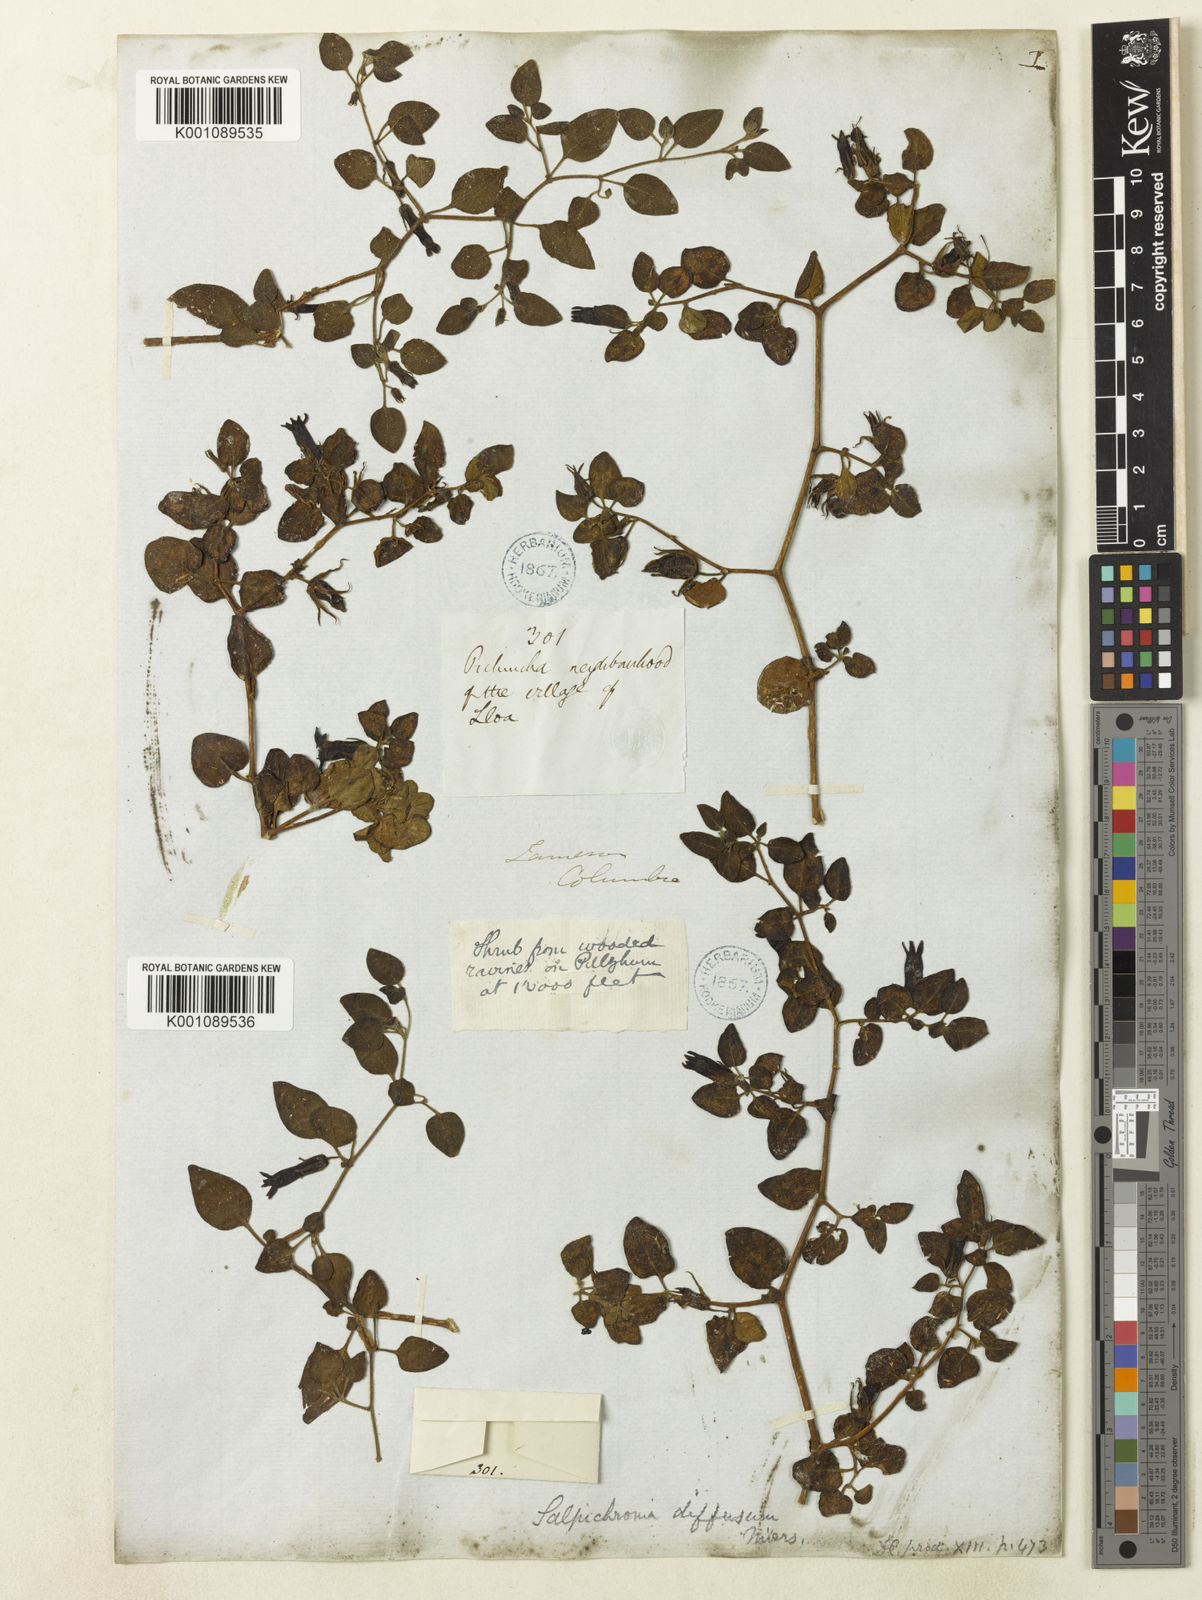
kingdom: Plantae
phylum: Tracheophyta
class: Magnoliopsida
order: Solanales
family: Solanaceae
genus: Salpichroa
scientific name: Salpichroa
